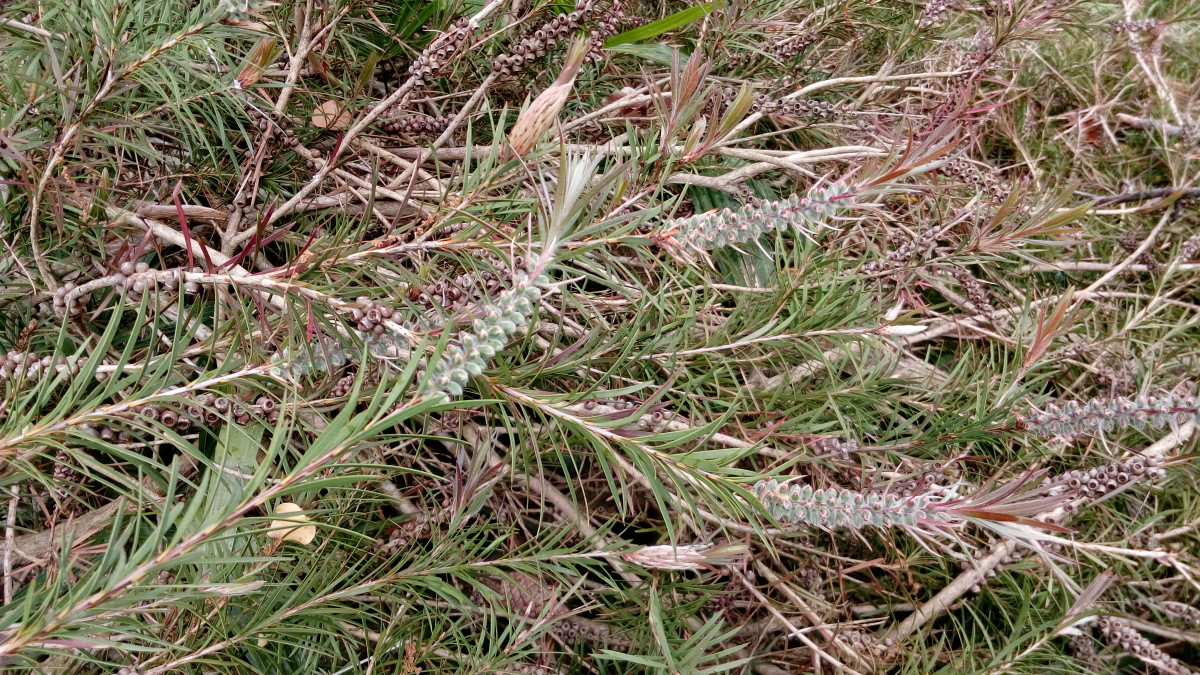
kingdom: Plantae
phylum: Tracheophyta
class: Magnoliopsida
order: Myrtales
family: Myrtaceae
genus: Callistemon
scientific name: Callistemon rigidus
